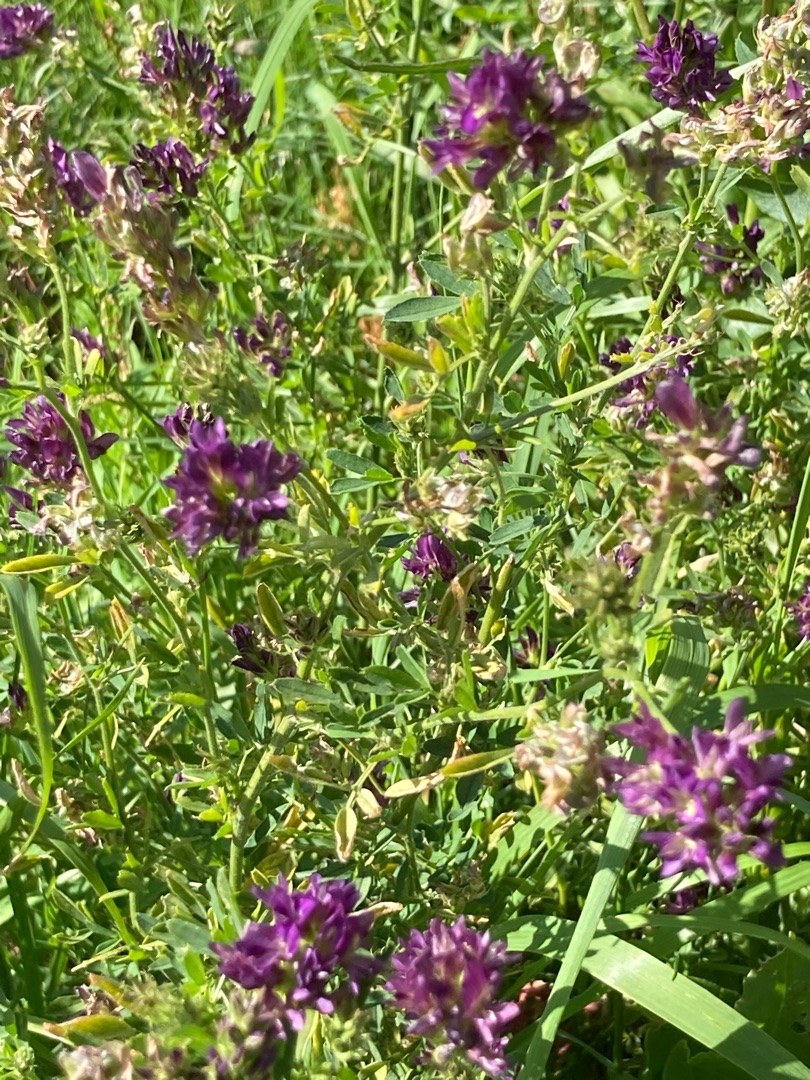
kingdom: Plantae
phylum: Tracheophyta
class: Magnoliopsida
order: Fabales
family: Fabaceae
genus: Medicago
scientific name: Medicago sativa
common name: Lucerne
